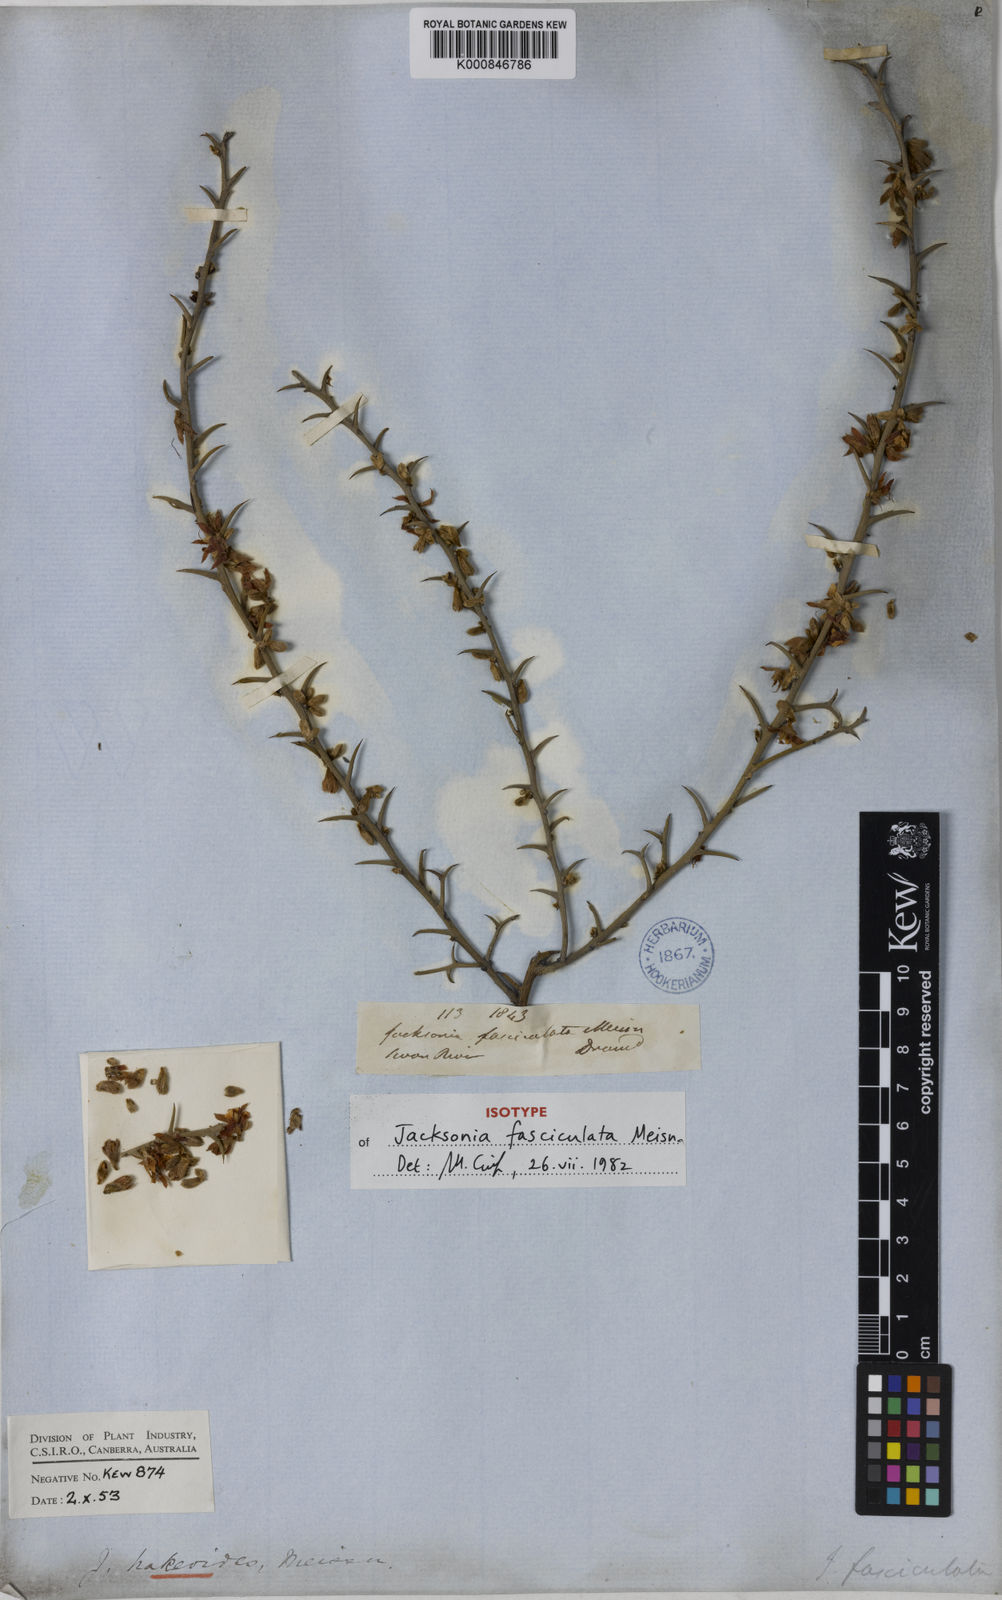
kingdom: Plantae
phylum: Tracheophyta
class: Magnoliopsida
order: Fabales
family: Fabaceae
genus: Jacksonia
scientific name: Jacksonia fasciculata
